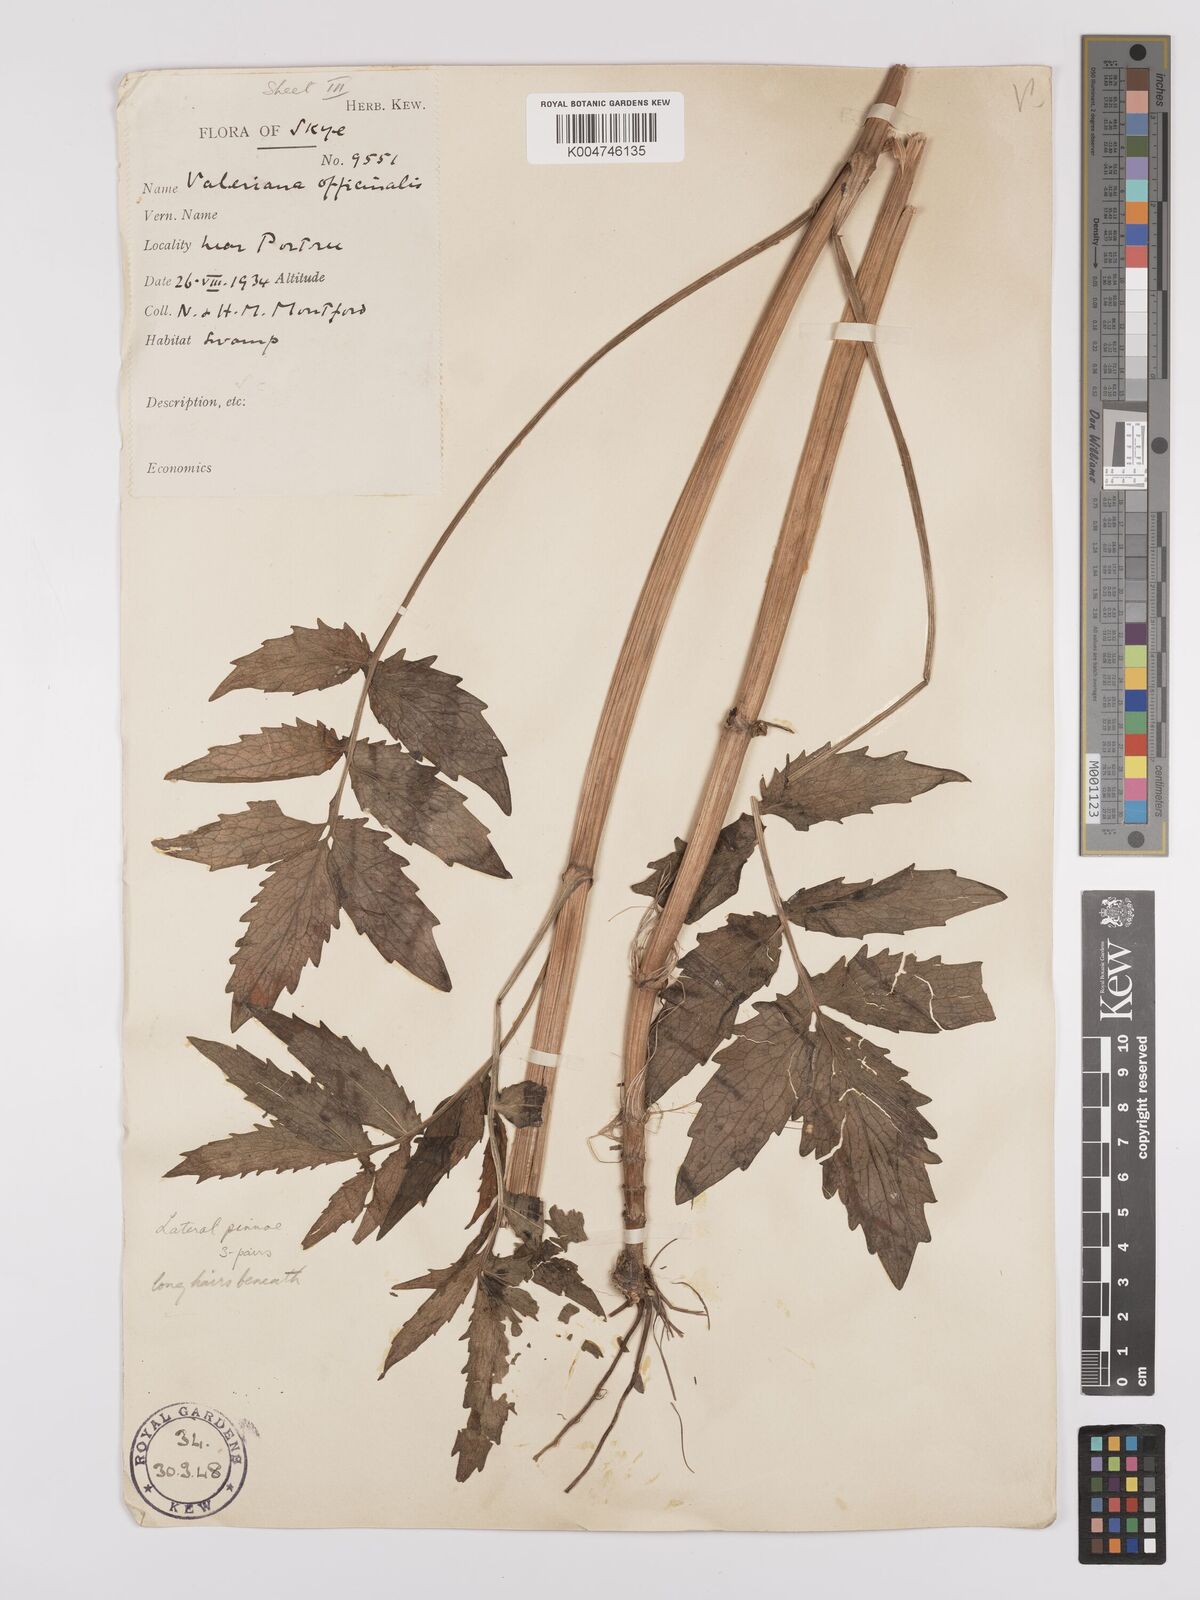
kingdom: Plantae
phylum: Tracheophyta
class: Magnoliopsida
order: Dipsacales
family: Caprifoliaceae
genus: Valeriana
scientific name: Valeriana excelsa
